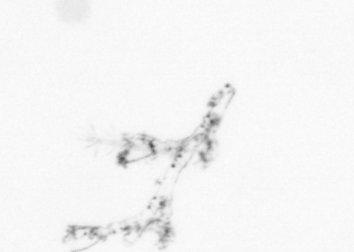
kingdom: Animalia
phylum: Cnidaria
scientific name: Cnidaria
